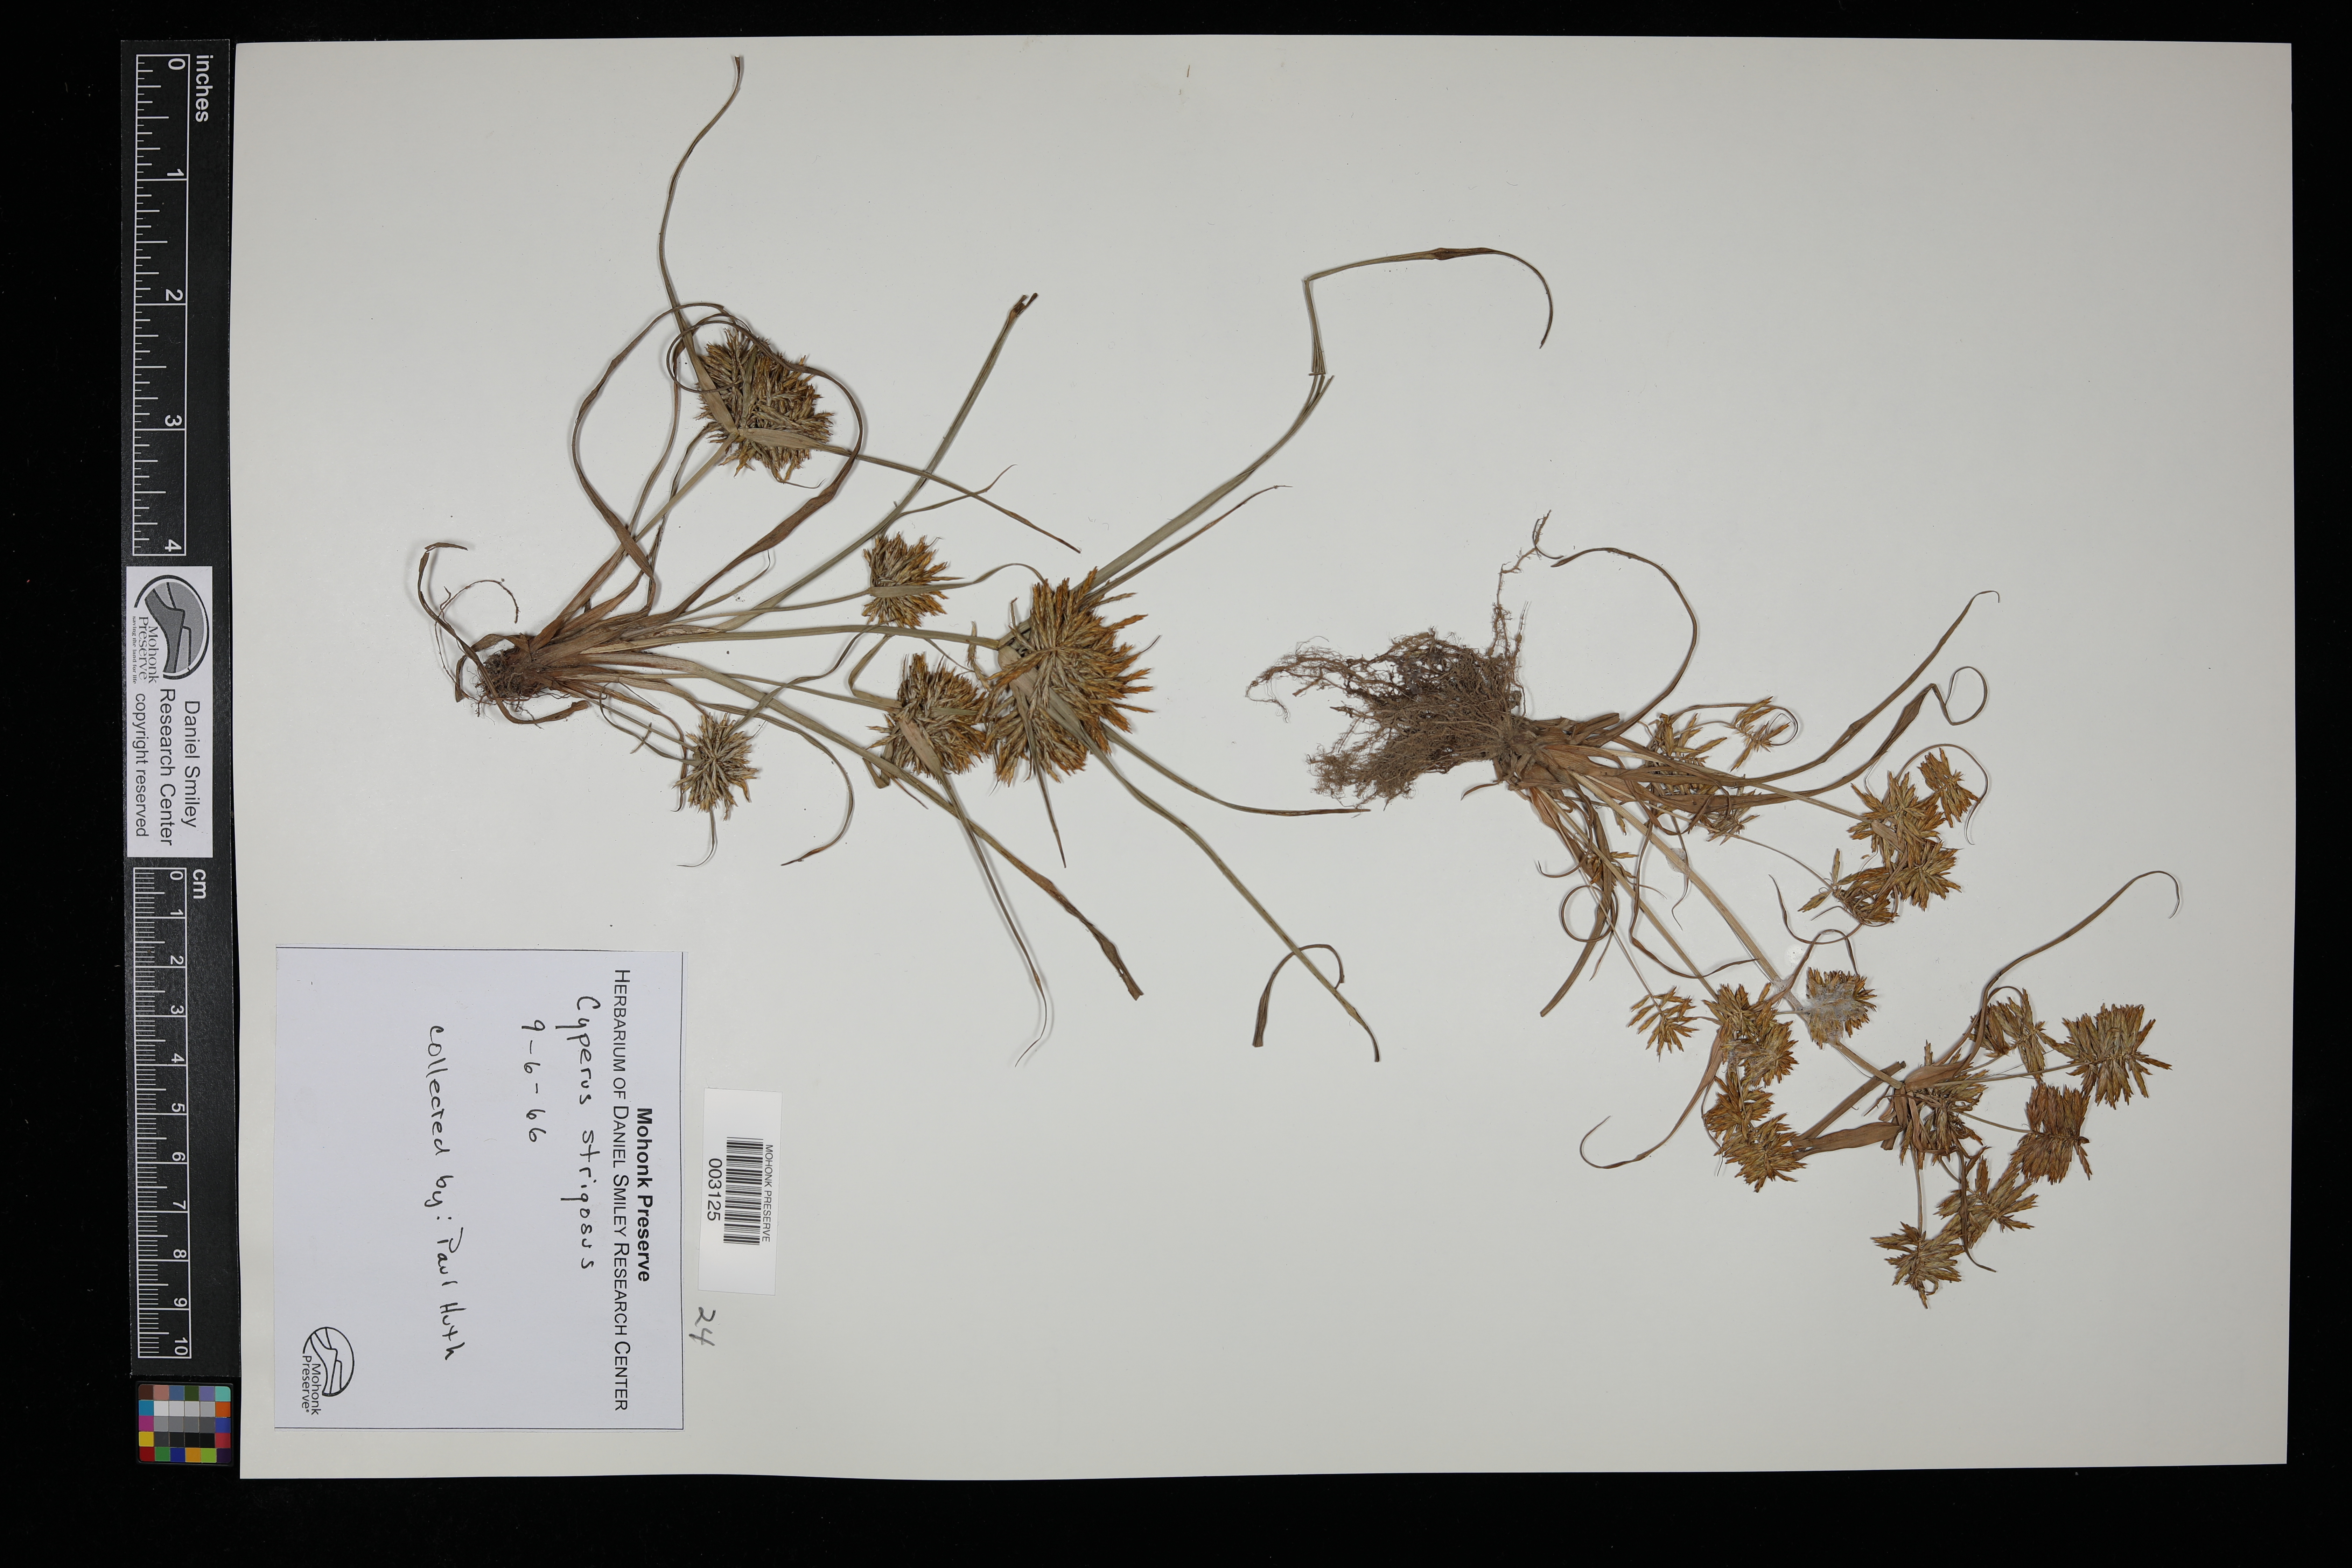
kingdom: Plantae
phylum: Tracheophyta
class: Liliopsida
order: Poales
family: Cyperaceae
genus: Cyperus
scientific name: Cyperus strigosus
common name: False nutsedge
